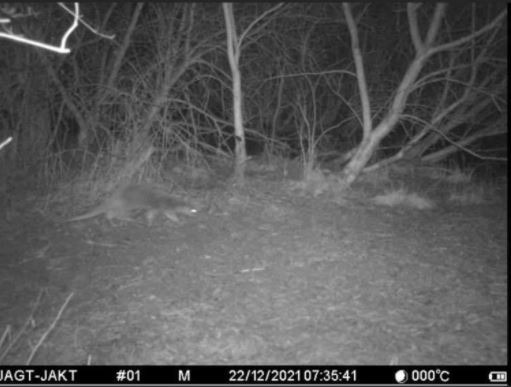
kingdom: Animalia
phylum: Chordata
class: Mammalia
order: Carnivora
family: Mustelidae
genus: Lutra
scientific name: Lutra lutra
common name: Odder
